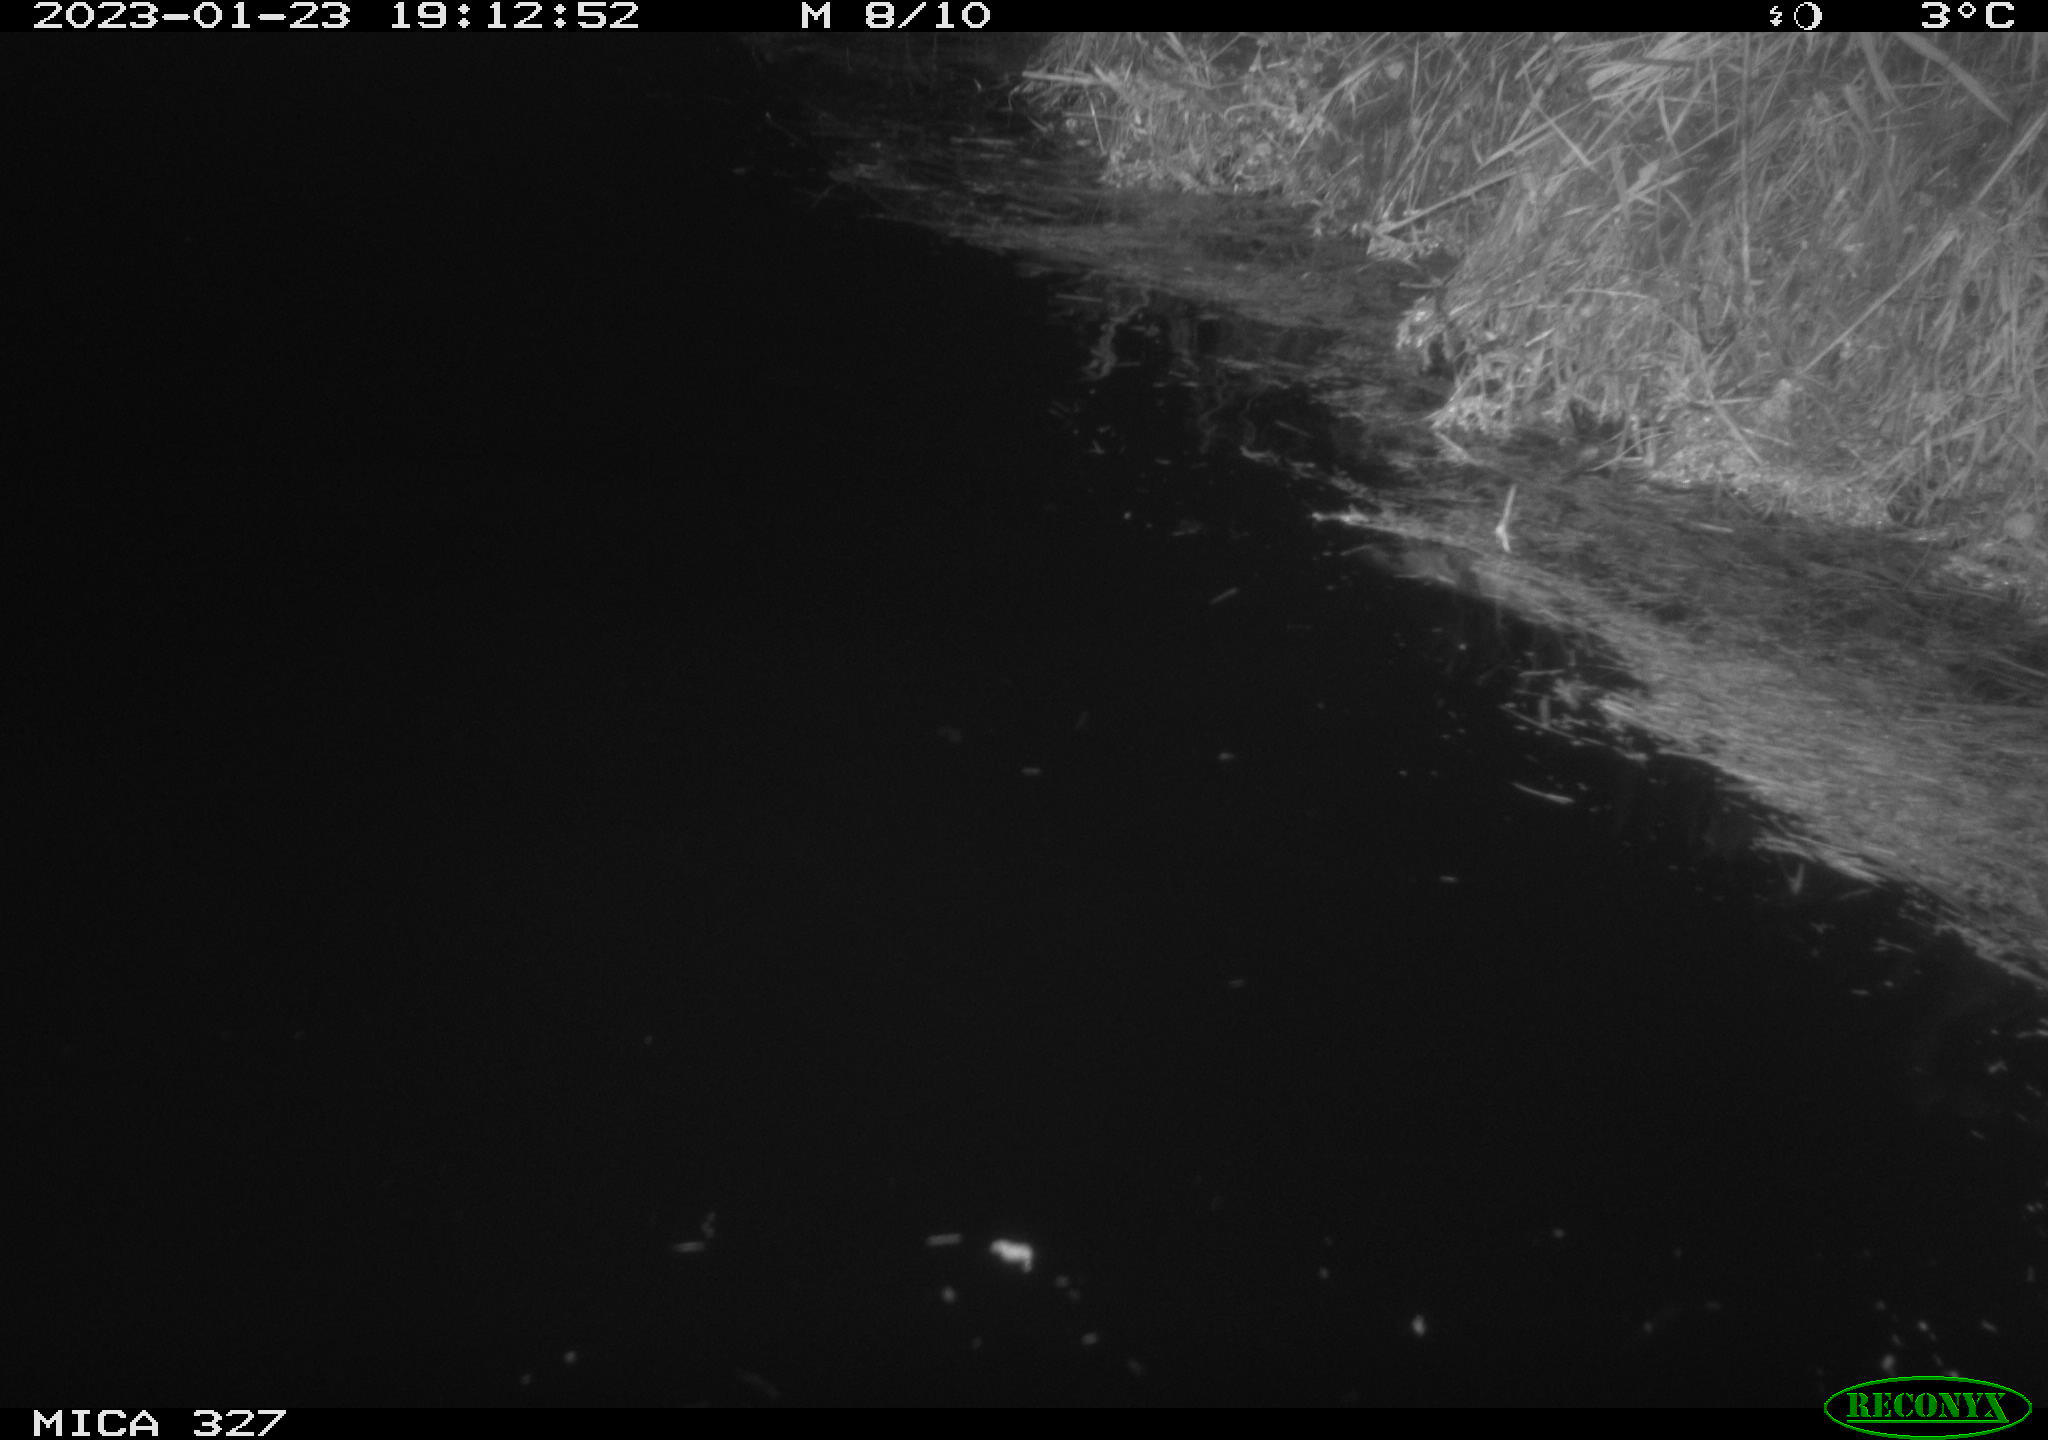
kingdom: Animalia
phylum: Chordata
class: Mammalia
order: Rodentia
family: Cricetidae
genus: Ondatra
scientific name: Ondatra zibethicus
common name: Muskrat
